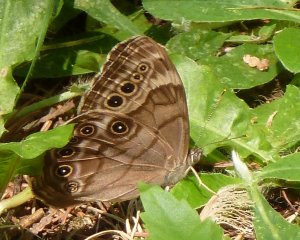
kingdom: Animalia
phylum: Arthropoda
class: Insecta
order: Lepidoptera
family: Nymphalidae
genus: Lethe
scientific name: Lethe anthedon
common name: Northern Pearly-Eye
